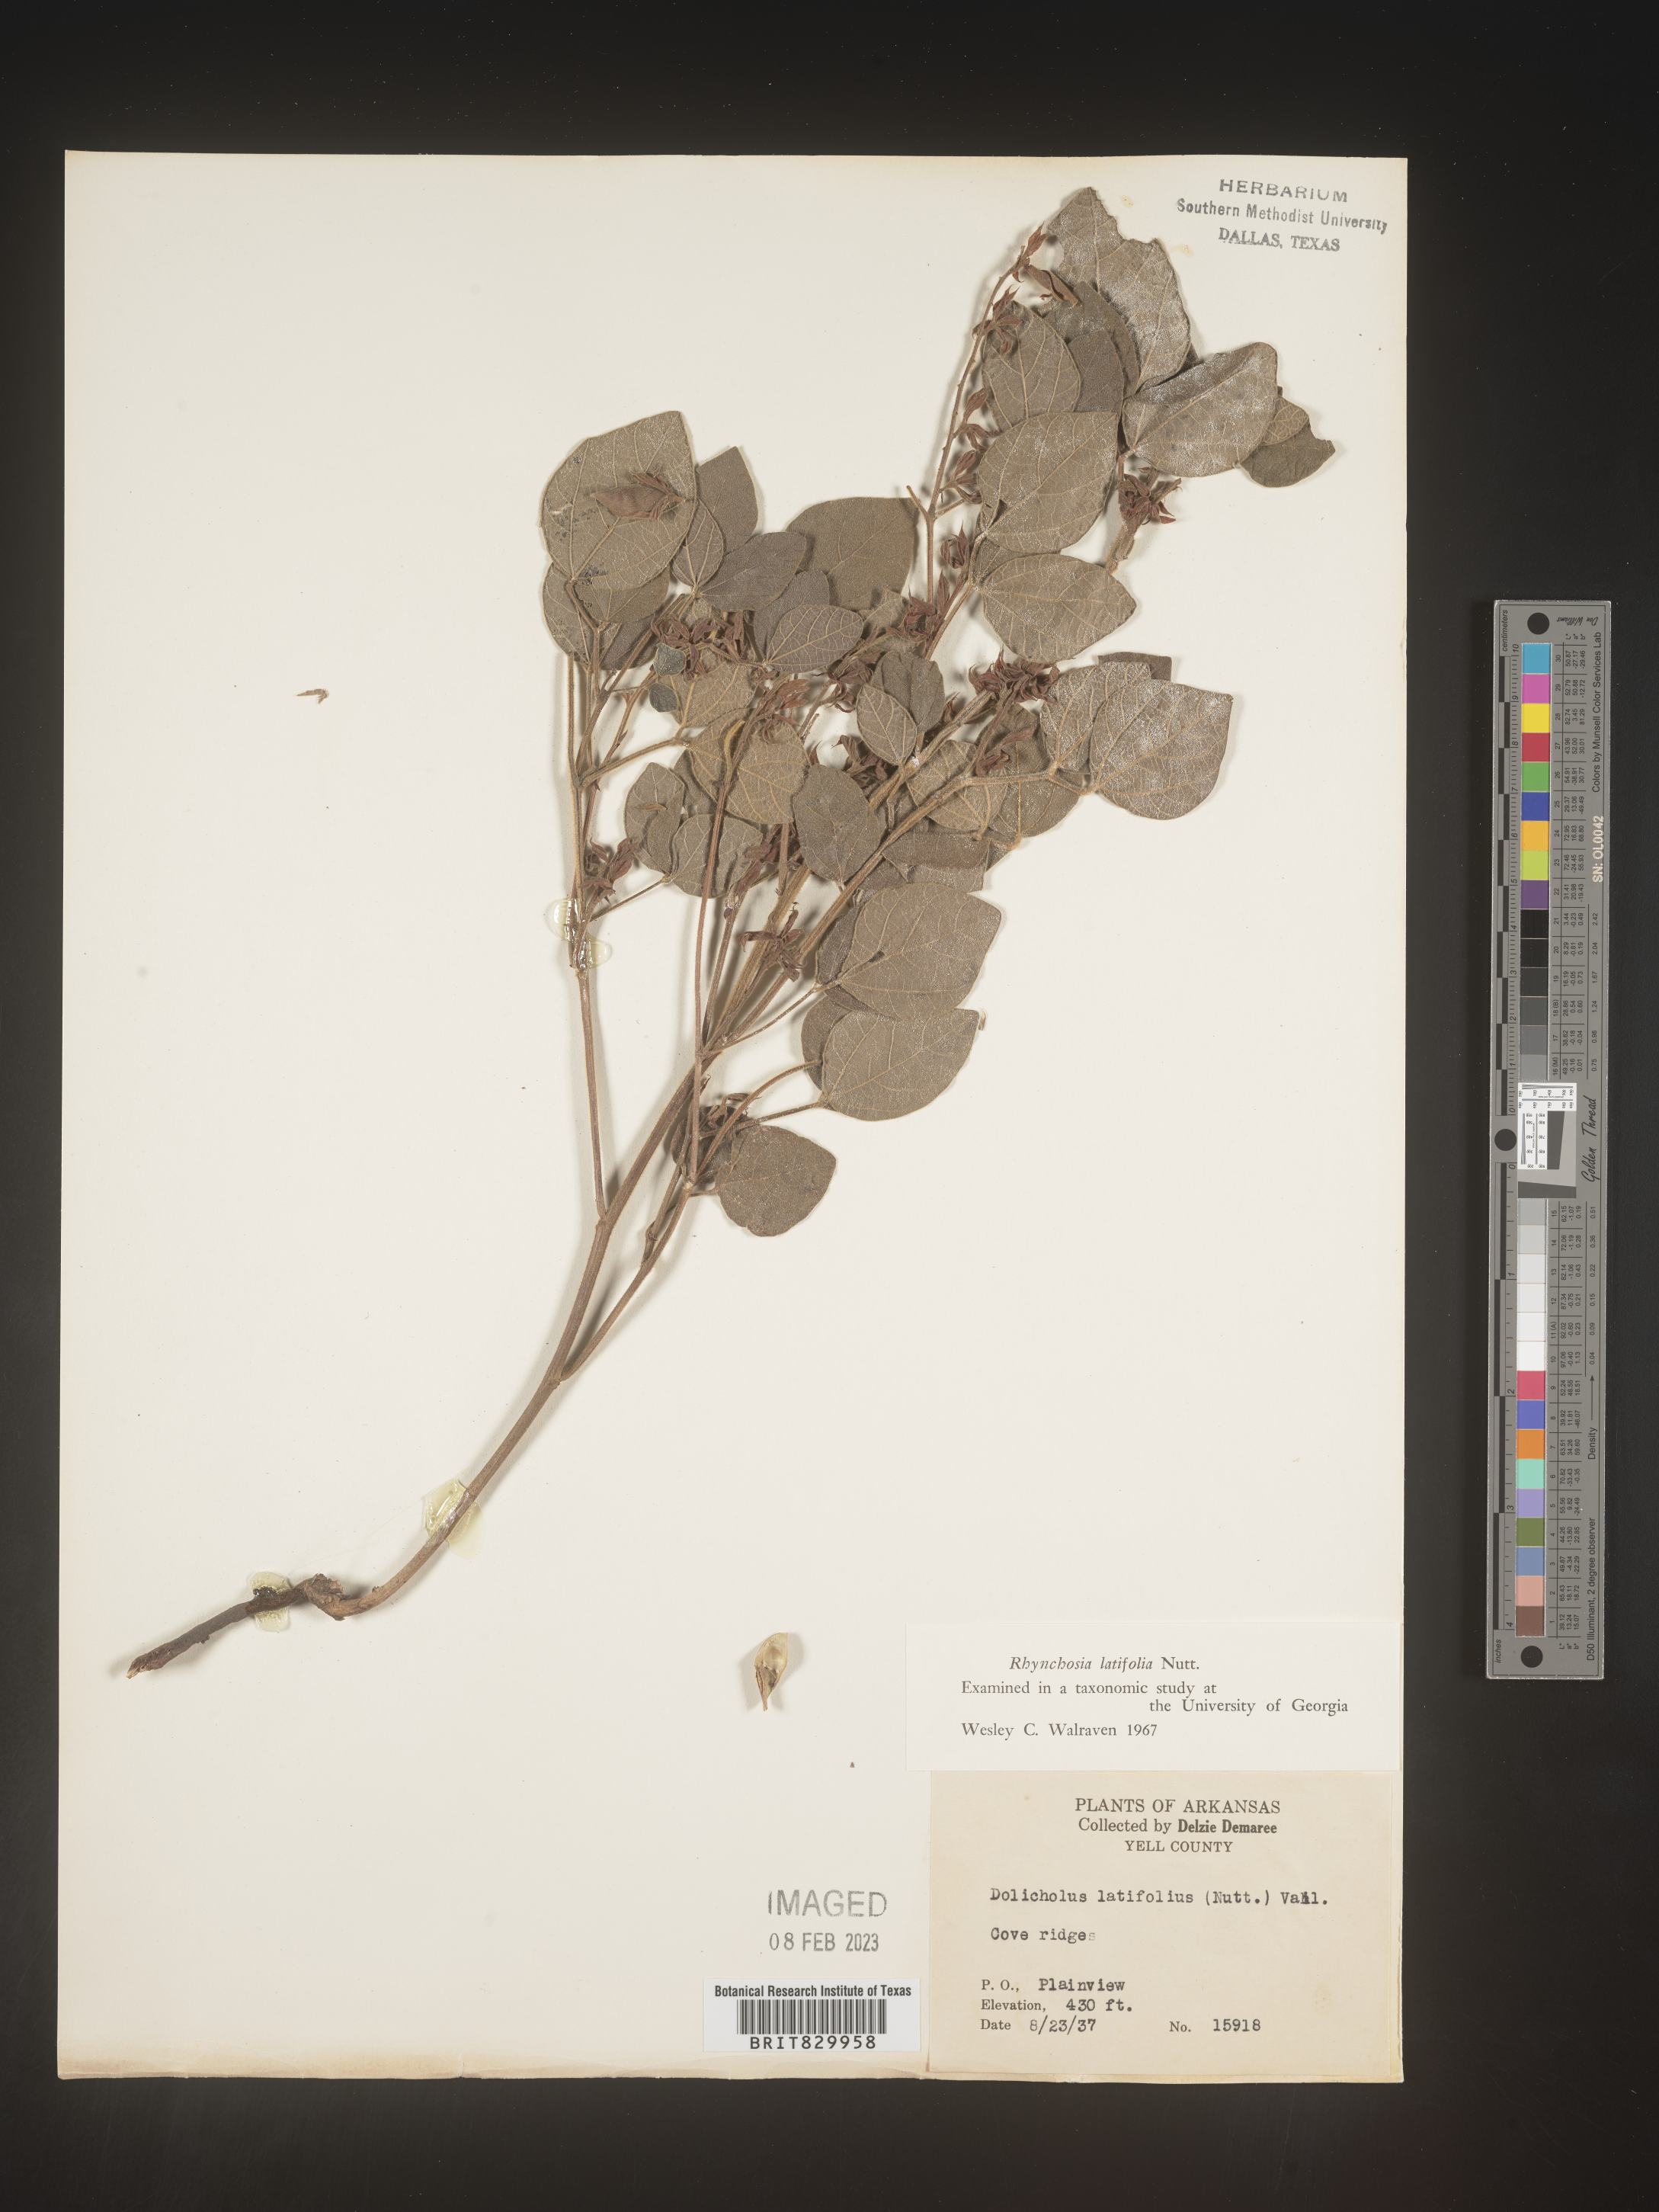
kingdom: Plantae
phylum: Tracheophyta
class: Magnoliopsida
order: Fabales
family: Fabaceae
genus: Rhynchosia
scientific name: Rhynchosia latifolia
